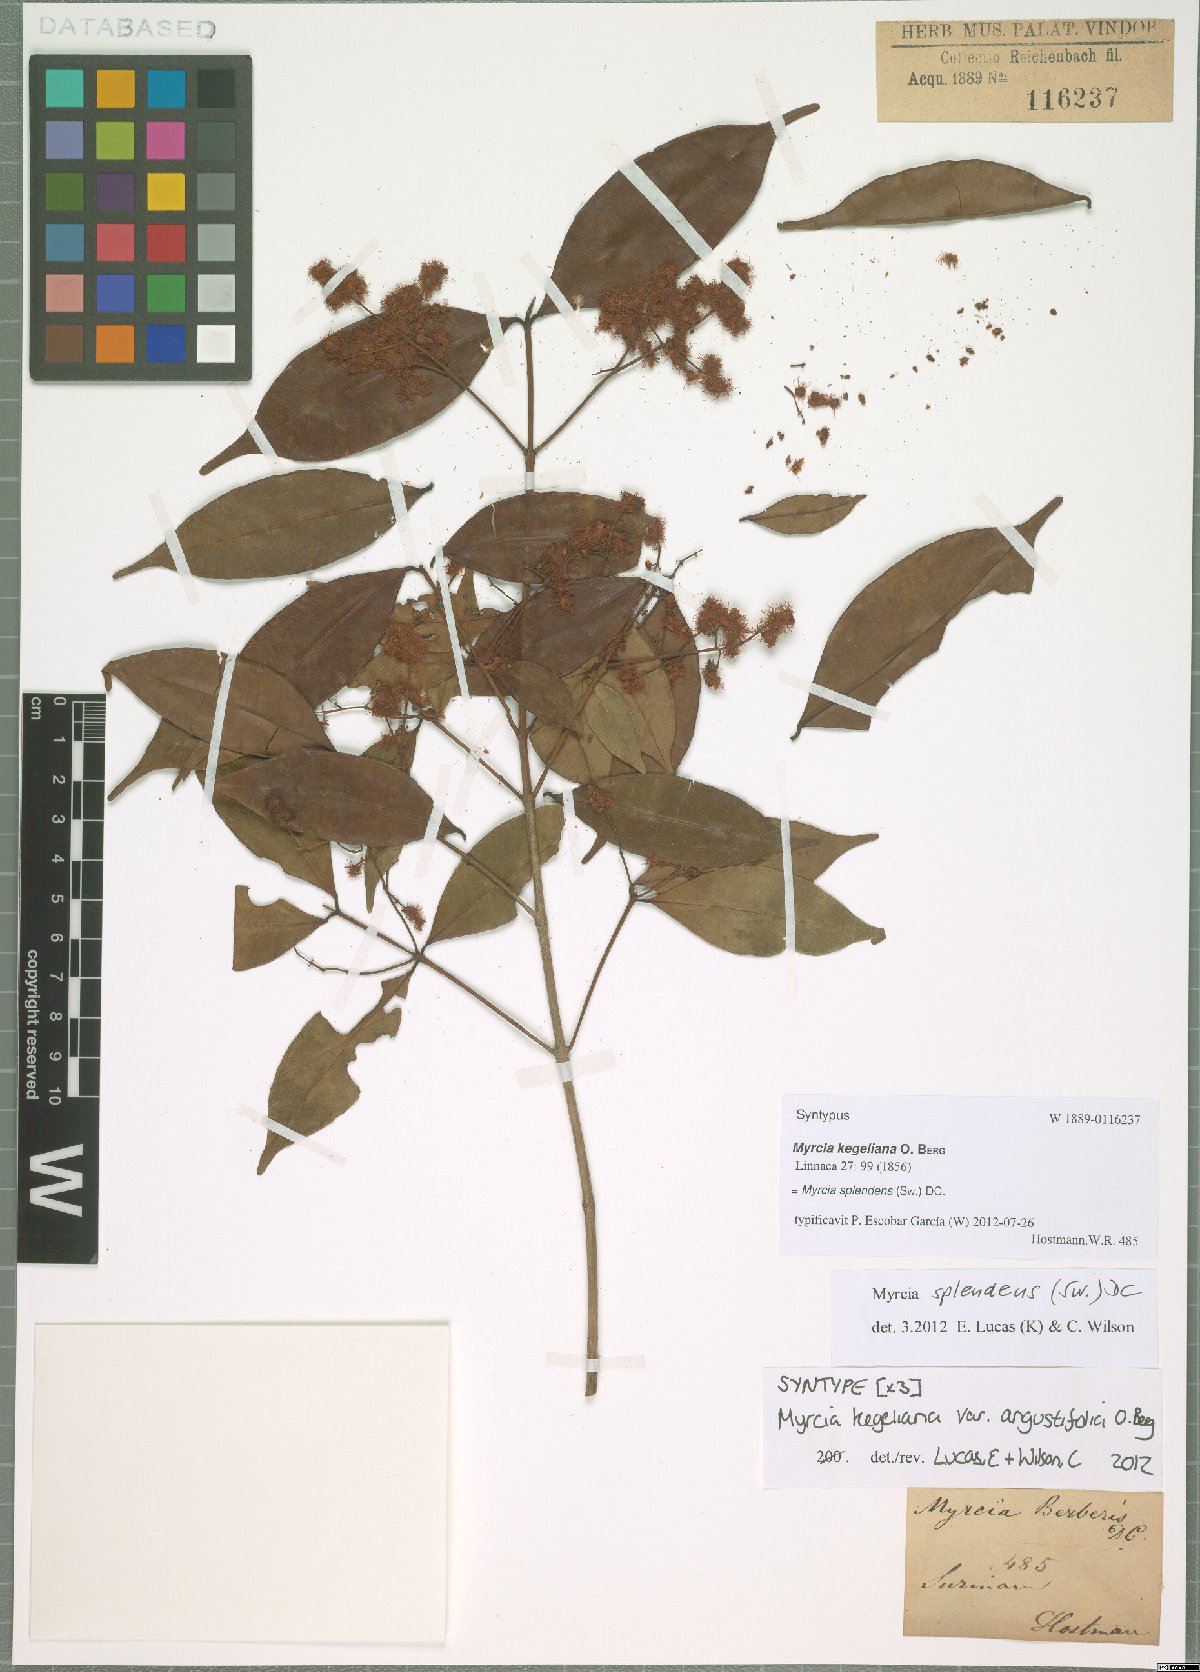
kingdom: Plantae
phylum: Tracheophyta
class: Magnoliopsida
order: Myrtales
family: Myrtaceae
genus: Myrcia
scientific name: Myrcia splendens
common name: Surinam cherry
